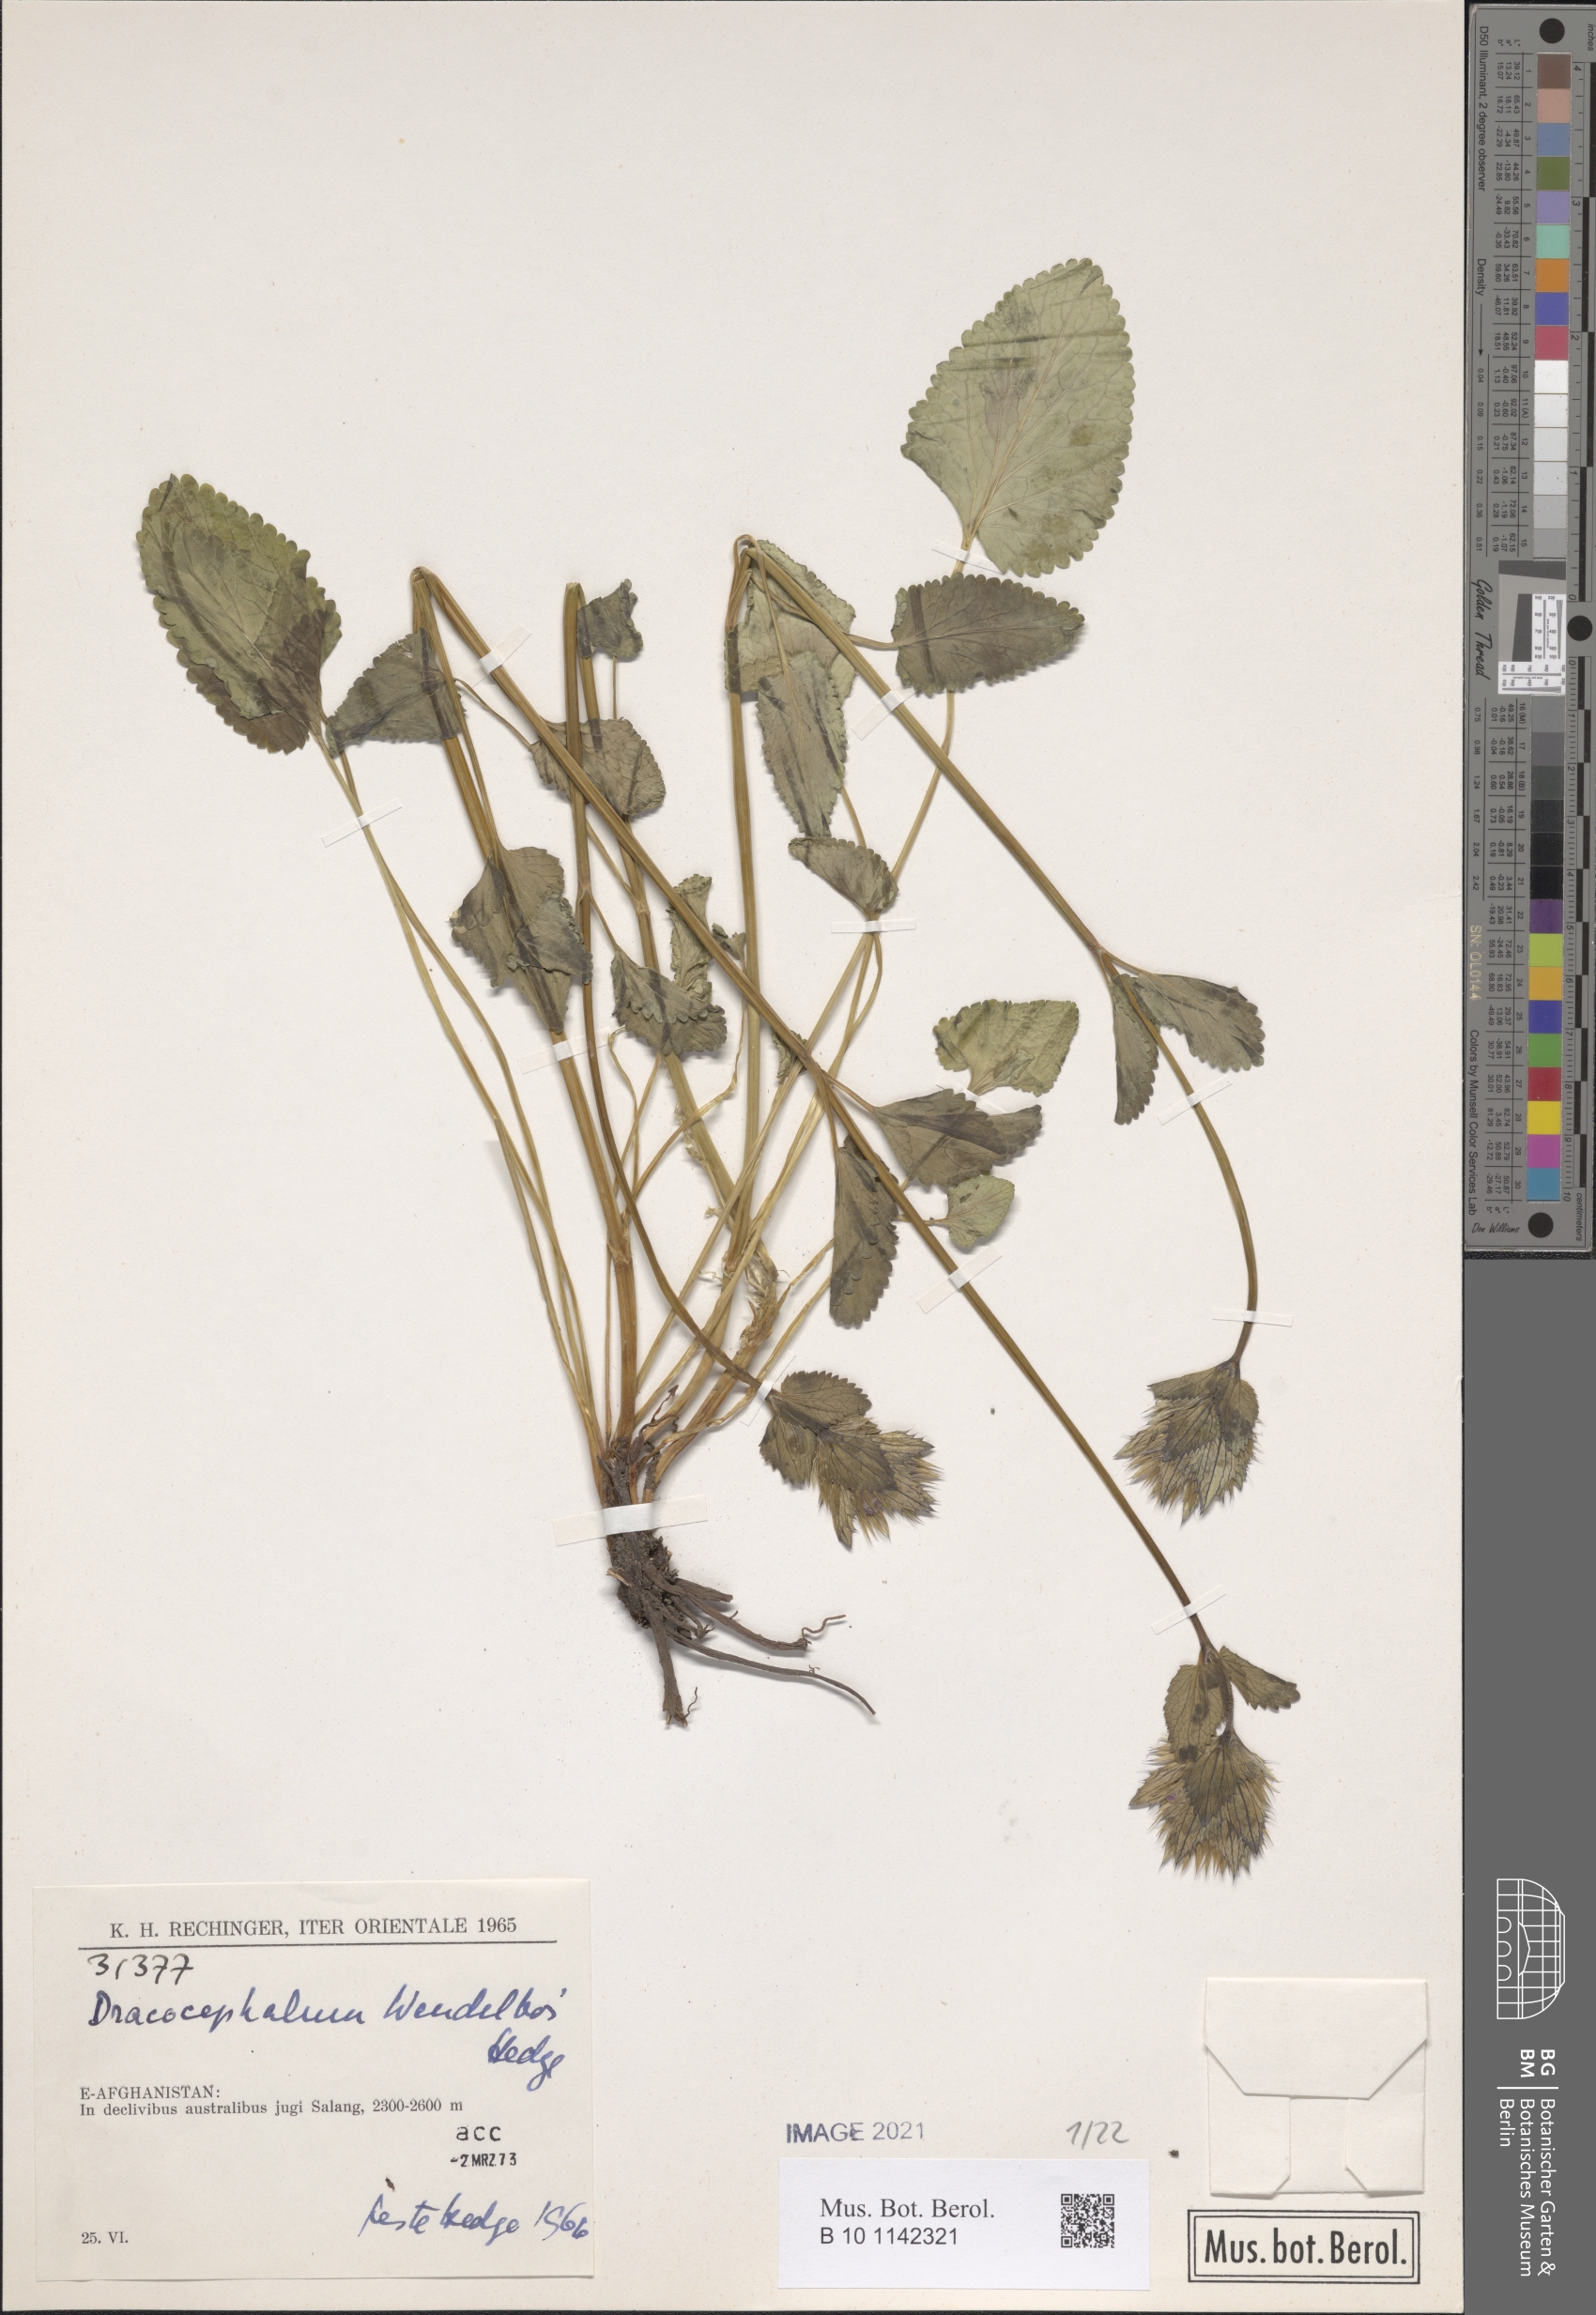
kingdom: Plantae
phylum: Tracheophyta
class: Magnoliopsida
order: Lamiales
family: Lamiaceae
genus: Dracocephalum
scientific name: Dracocephalum wendelboi
